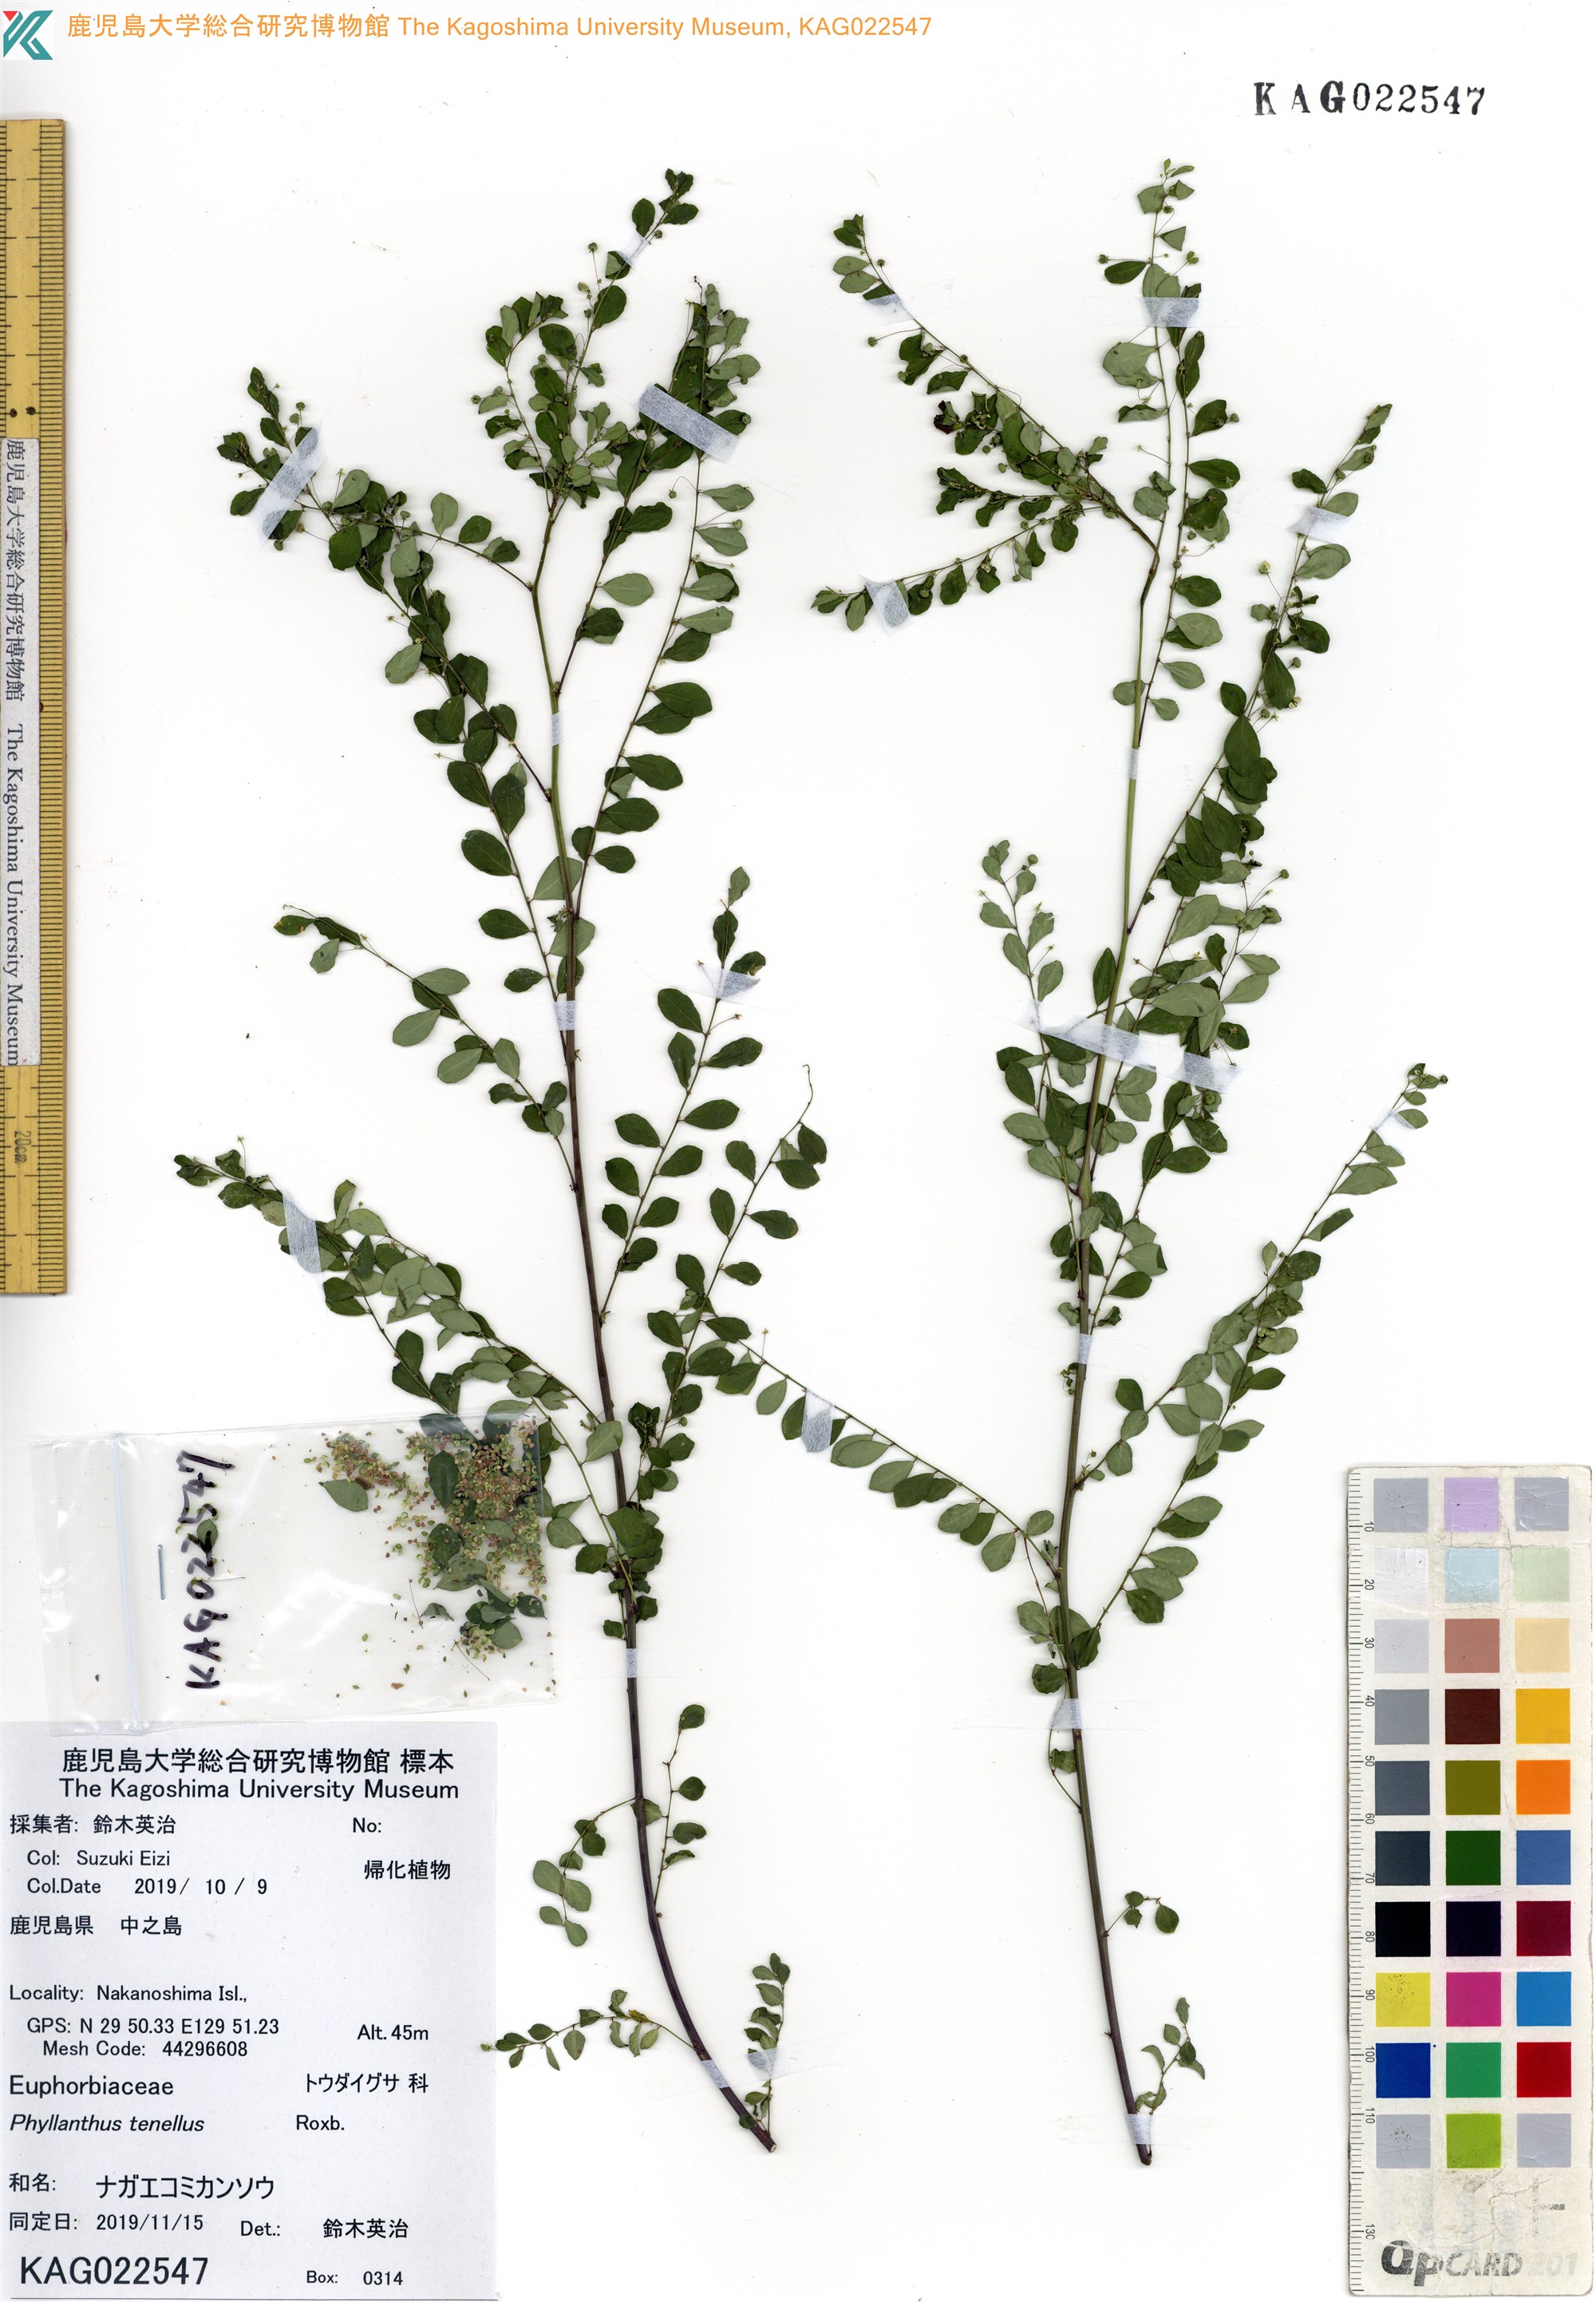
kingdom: Plantae
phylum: Tracheophyta
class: Magnoliopsida
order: Malpighiales
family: Phyllanthaceae
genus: Phyllanthus
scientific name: Phyllanthus tenellus
